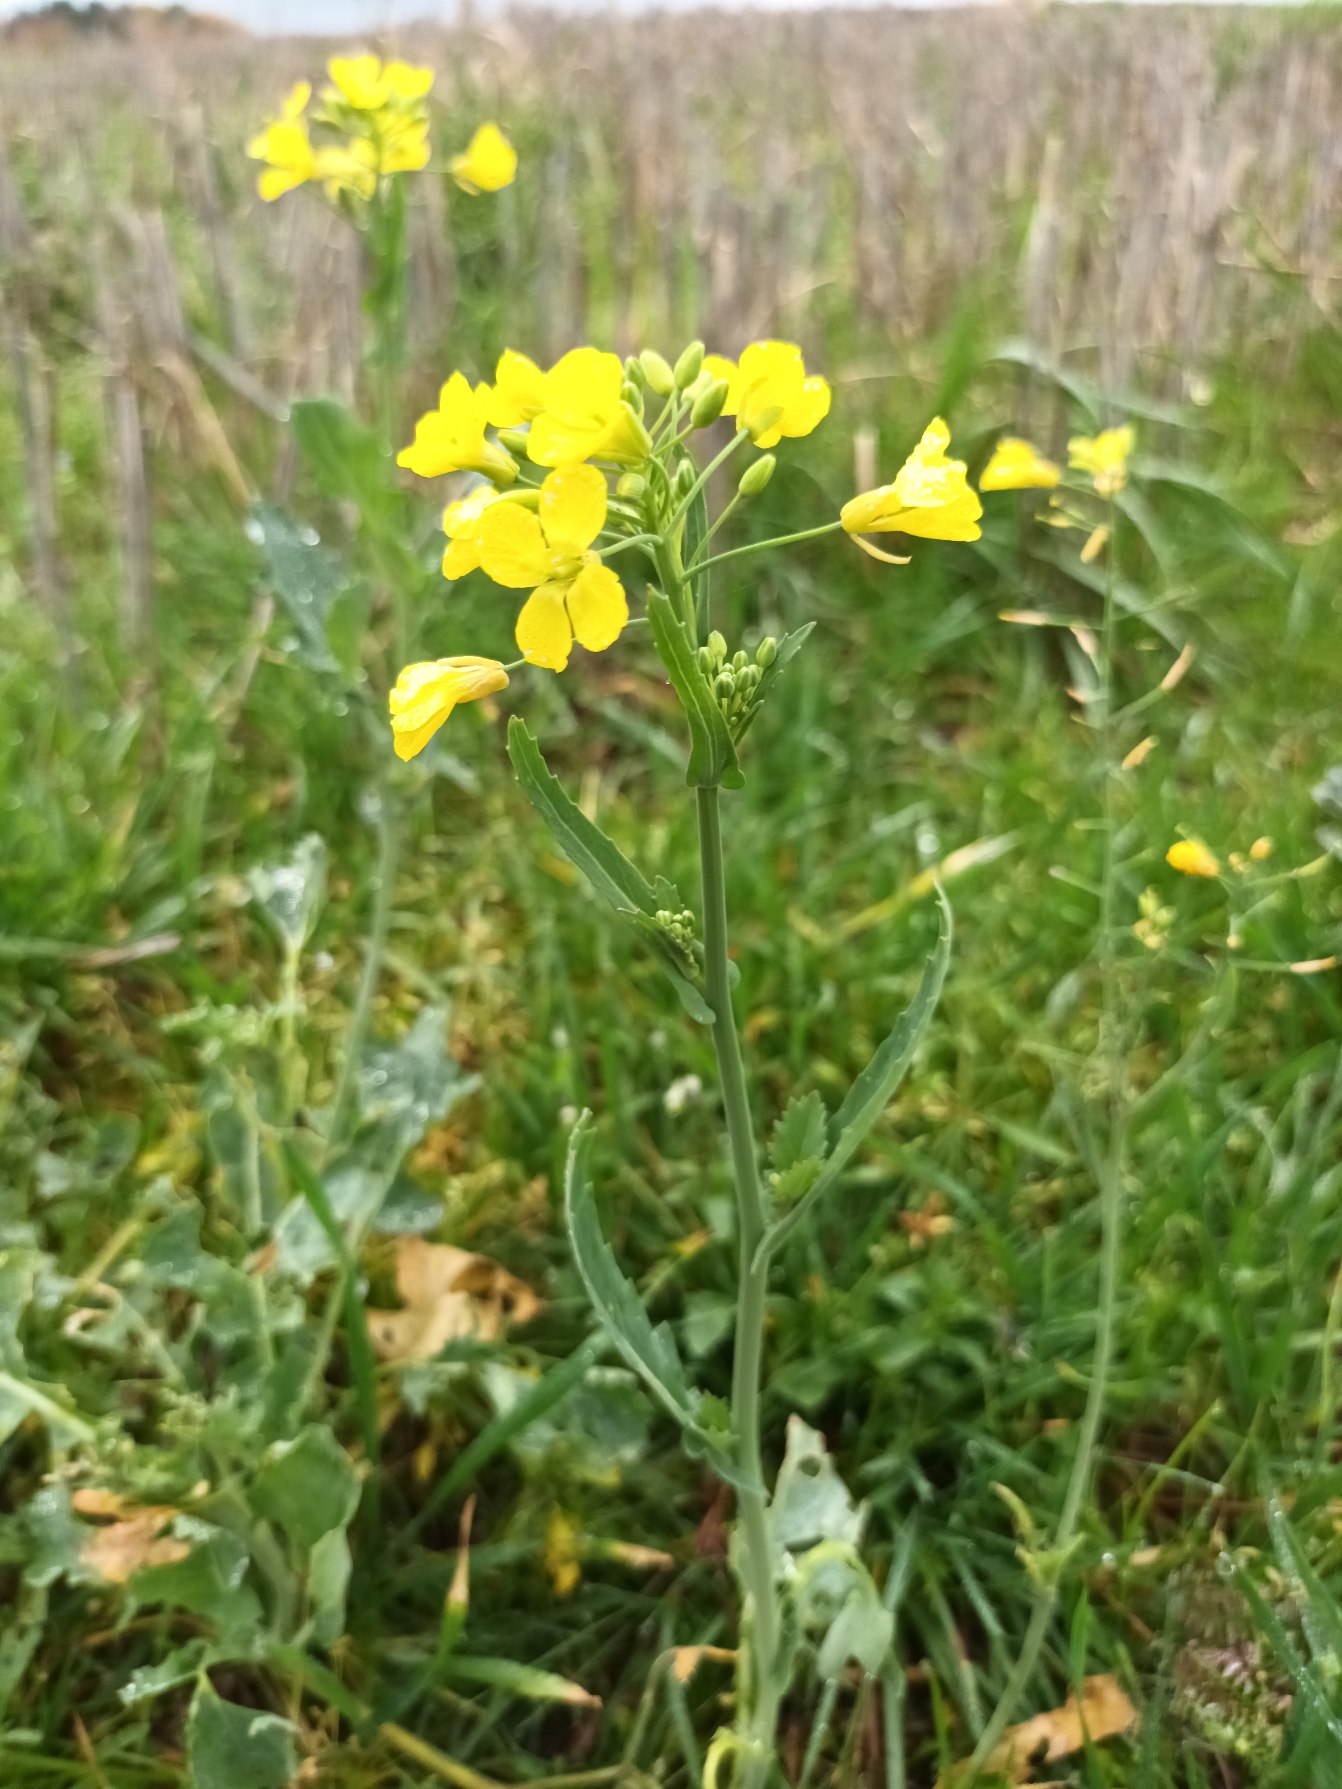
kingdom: Plantae
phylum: Tracheophyta
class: Magnoliopsida
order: Brassicales
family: Brassicaceae
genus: Brassica
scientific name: Brassica rapa
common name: Ager-kål
